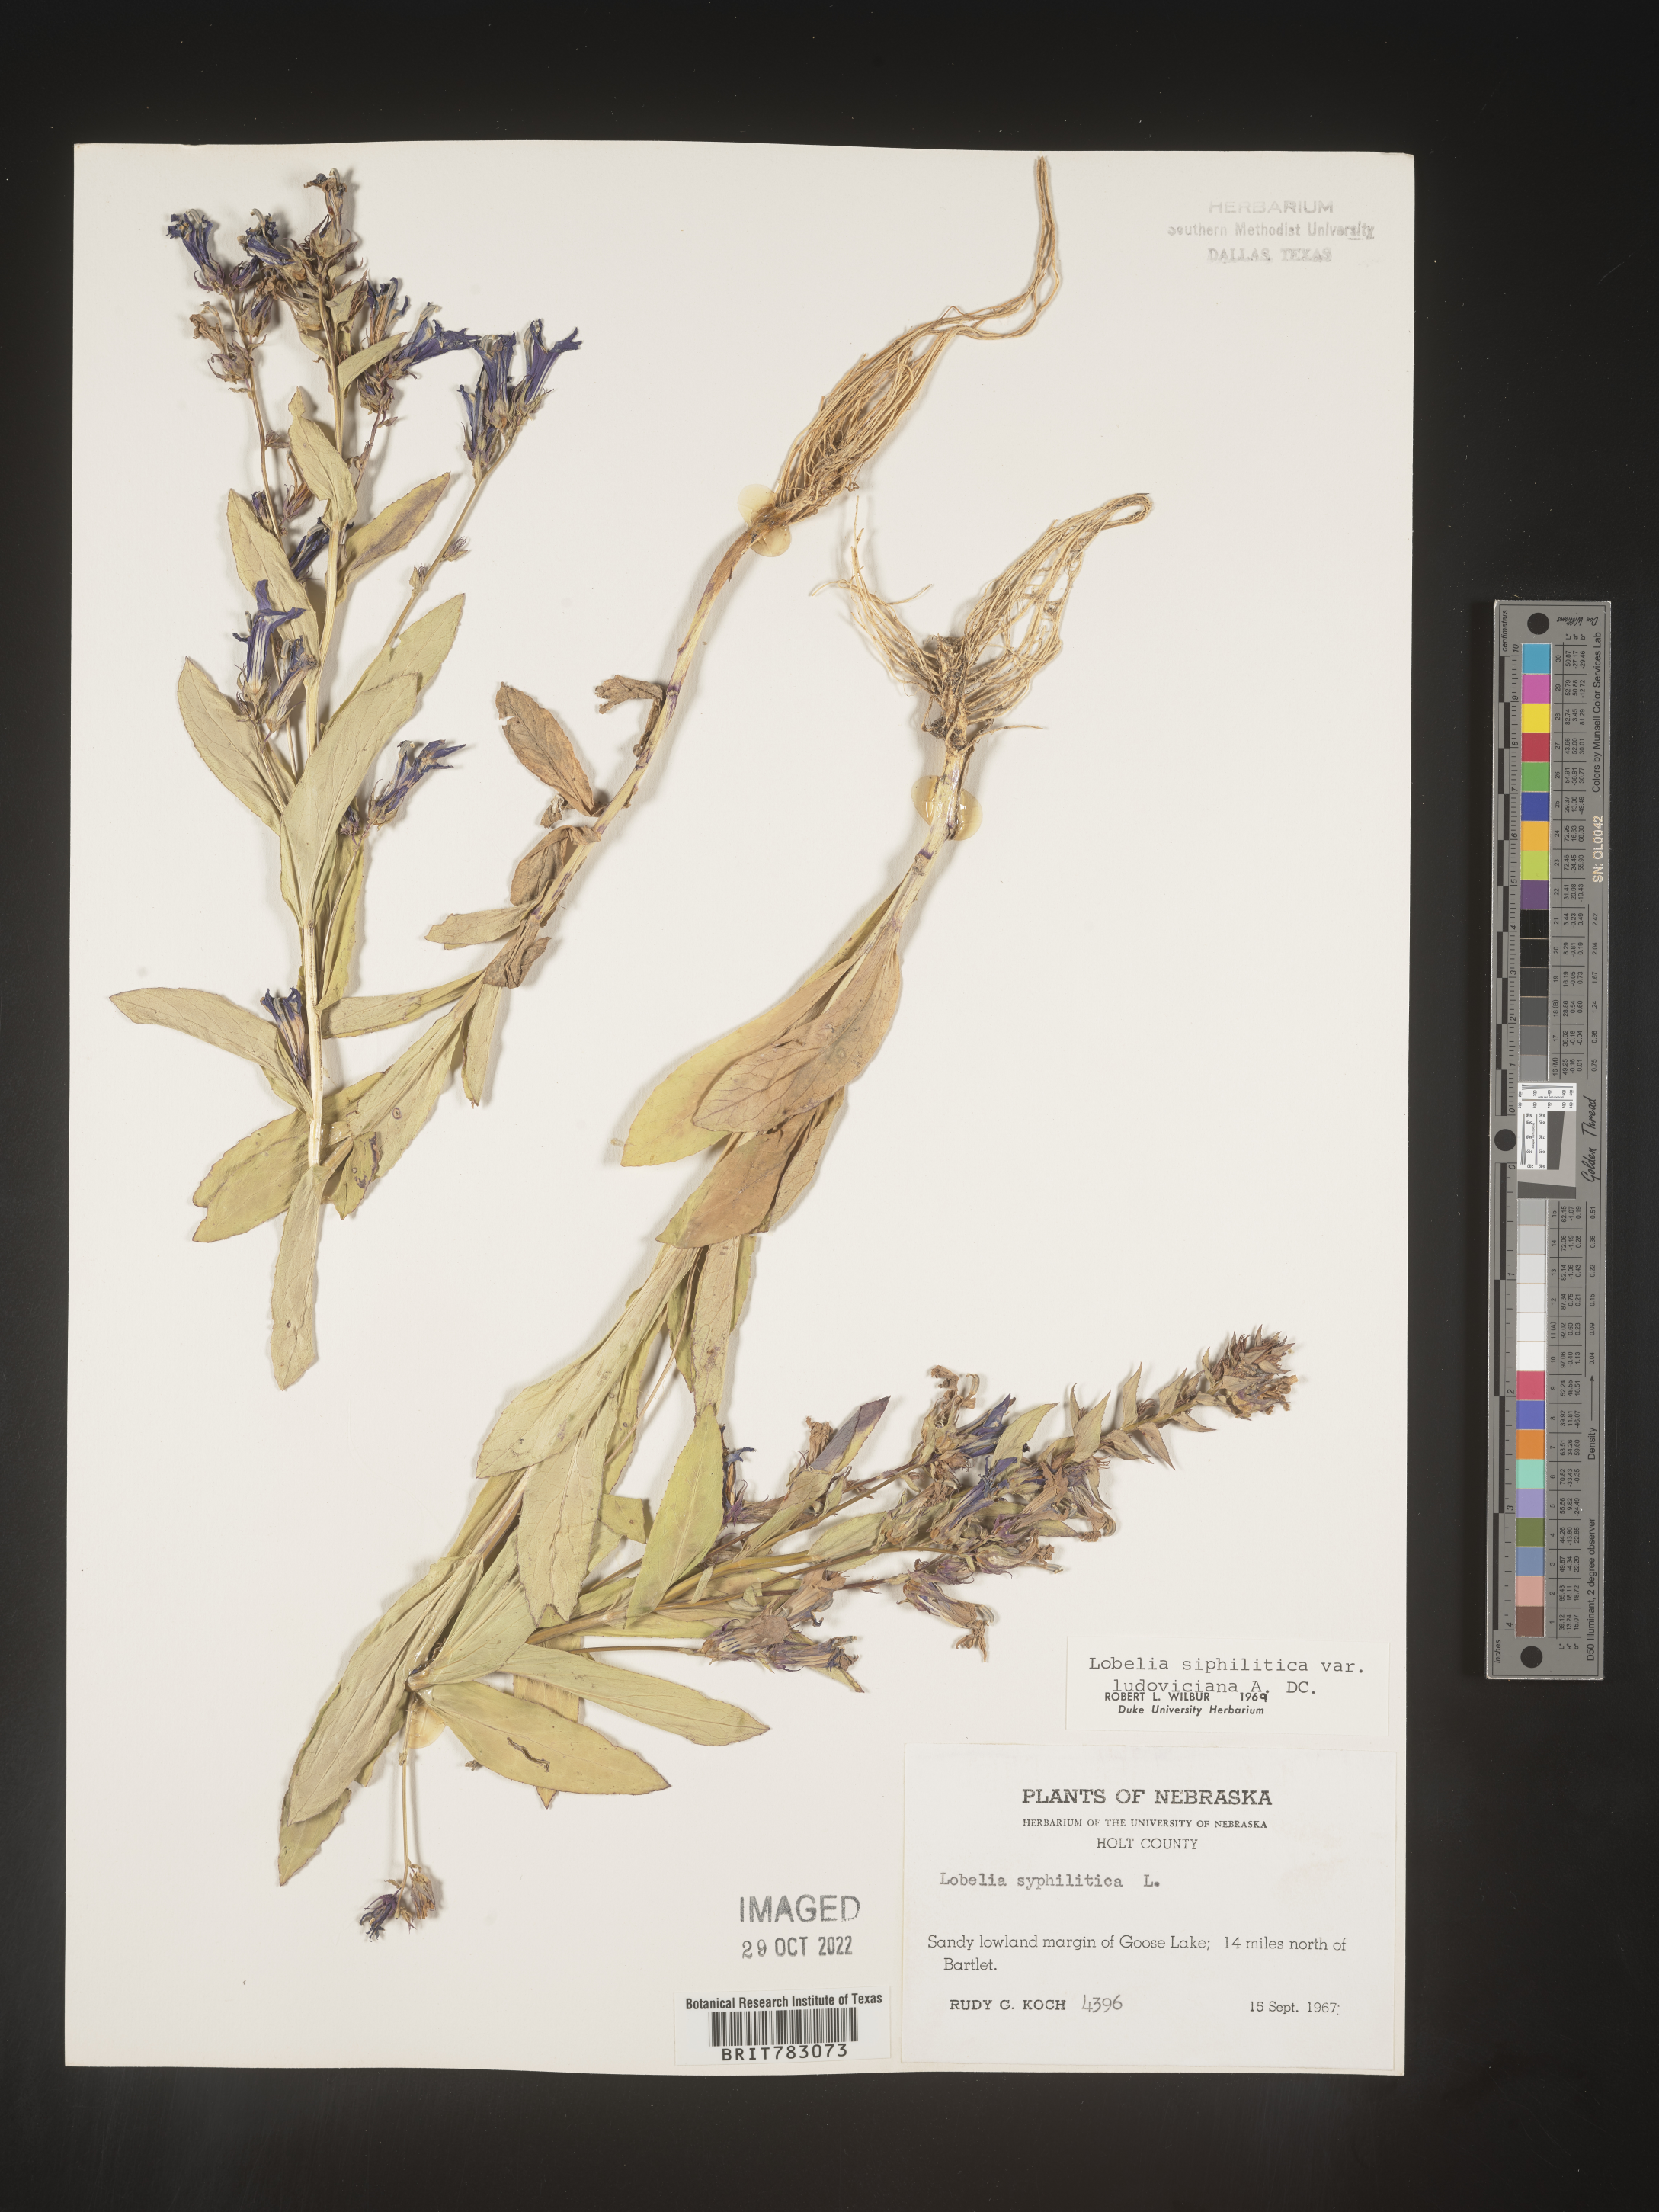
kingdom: Plantae
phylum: Tracheophyta
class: Magnoliopsida
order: Asterales
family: Campanulaceae
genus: Lobelia
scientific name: Lobelia siphilitica
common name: Great lobelia
